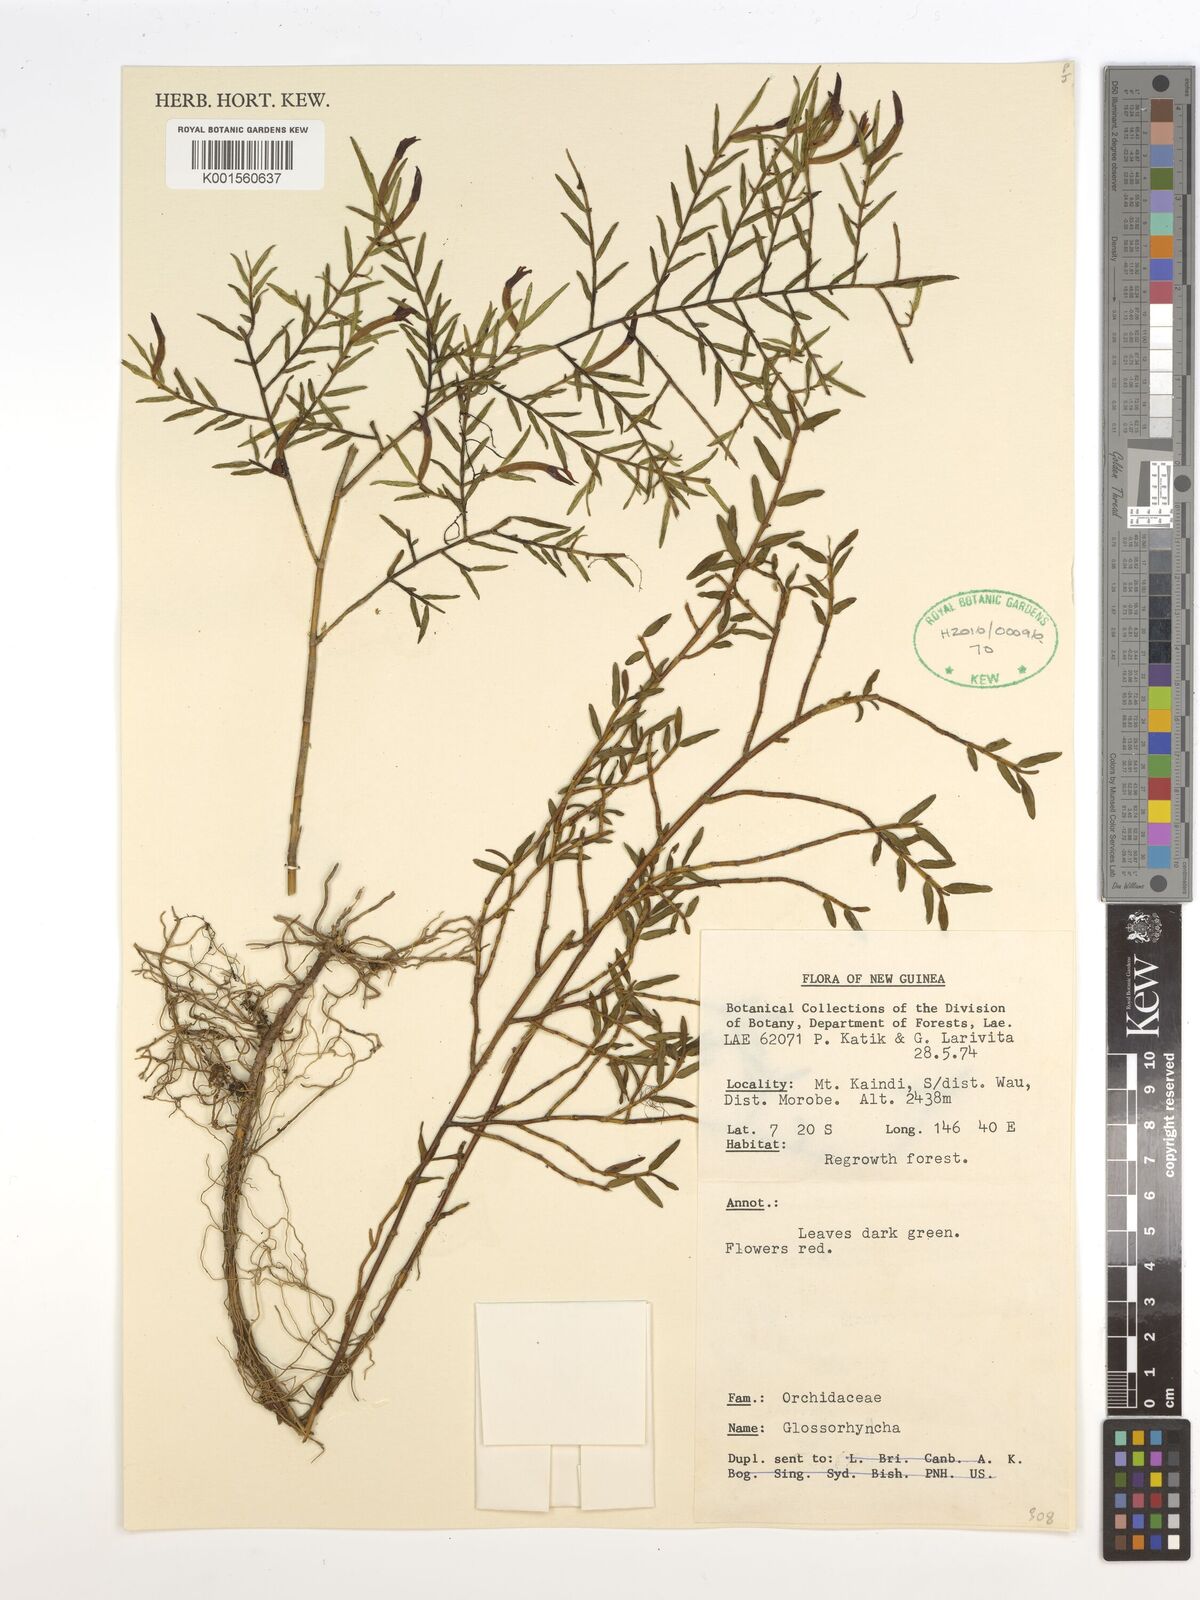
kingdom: Plantae
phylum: Tracheophyta
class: Liliopsida
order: Asparagales
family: Orchidaceae
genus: Glomera
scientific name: Glomera
